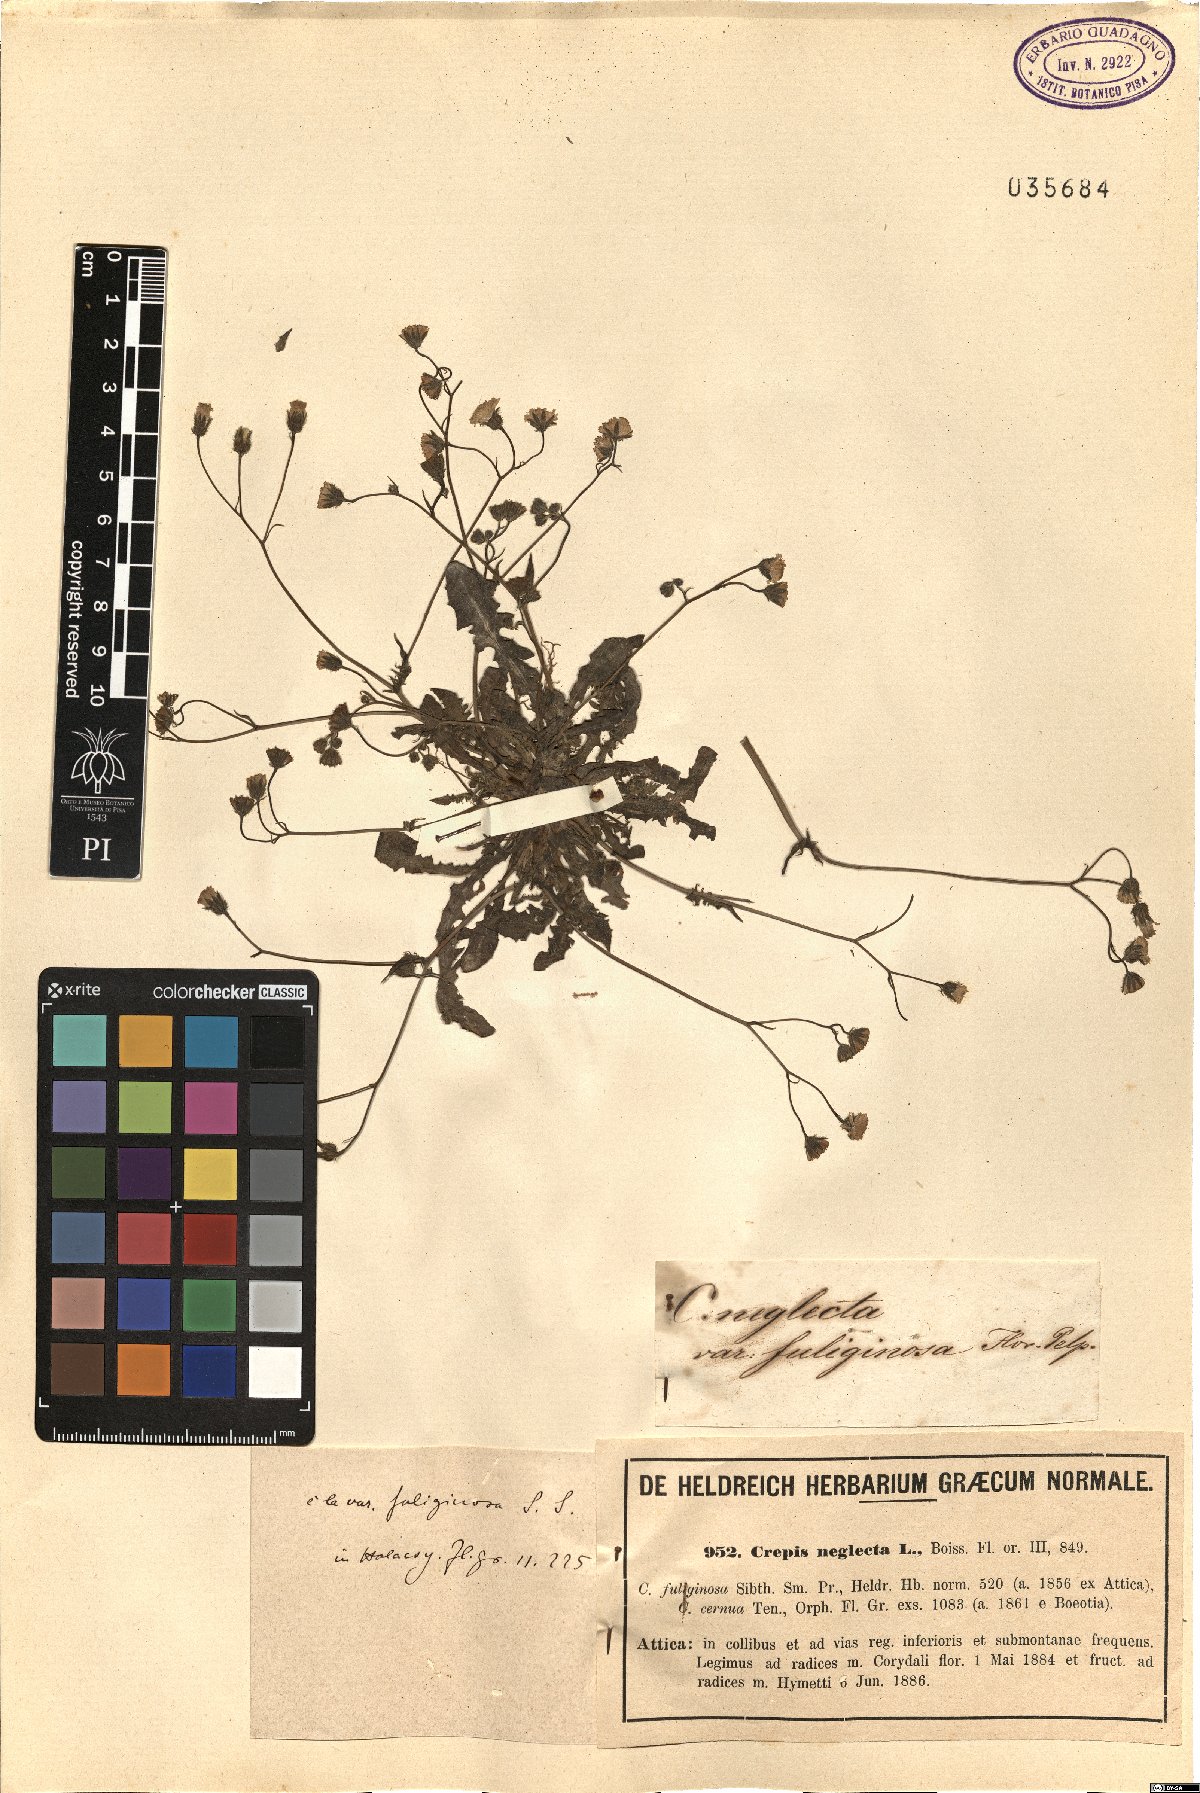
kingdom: Plantae
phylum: Tracheophyta
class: Magnoliopsida
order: Asterales
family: Asteraceae
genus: Crepis
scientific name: Crepis neglecta
